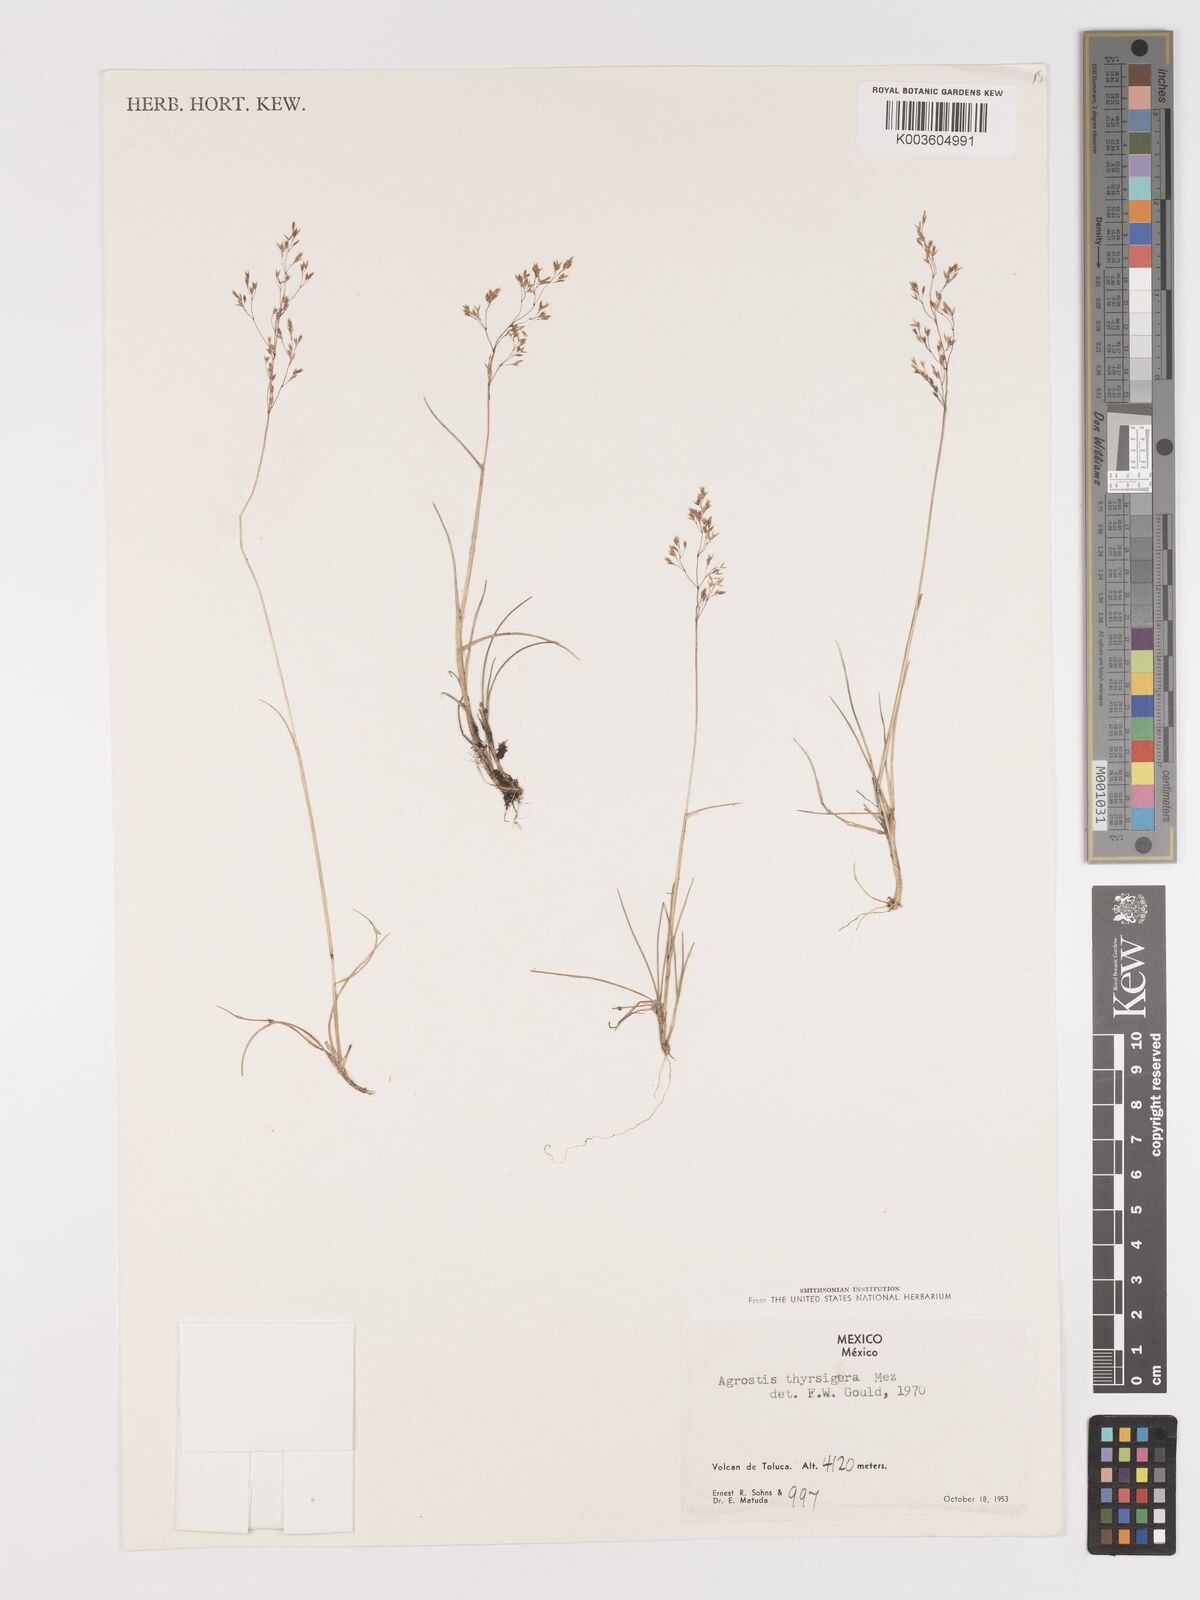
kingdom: Plantae
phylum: Tracheophyta
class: Liliopsida
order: Poales
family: Poaceae
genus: Agrostis
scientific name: Agrostis bourgaei
